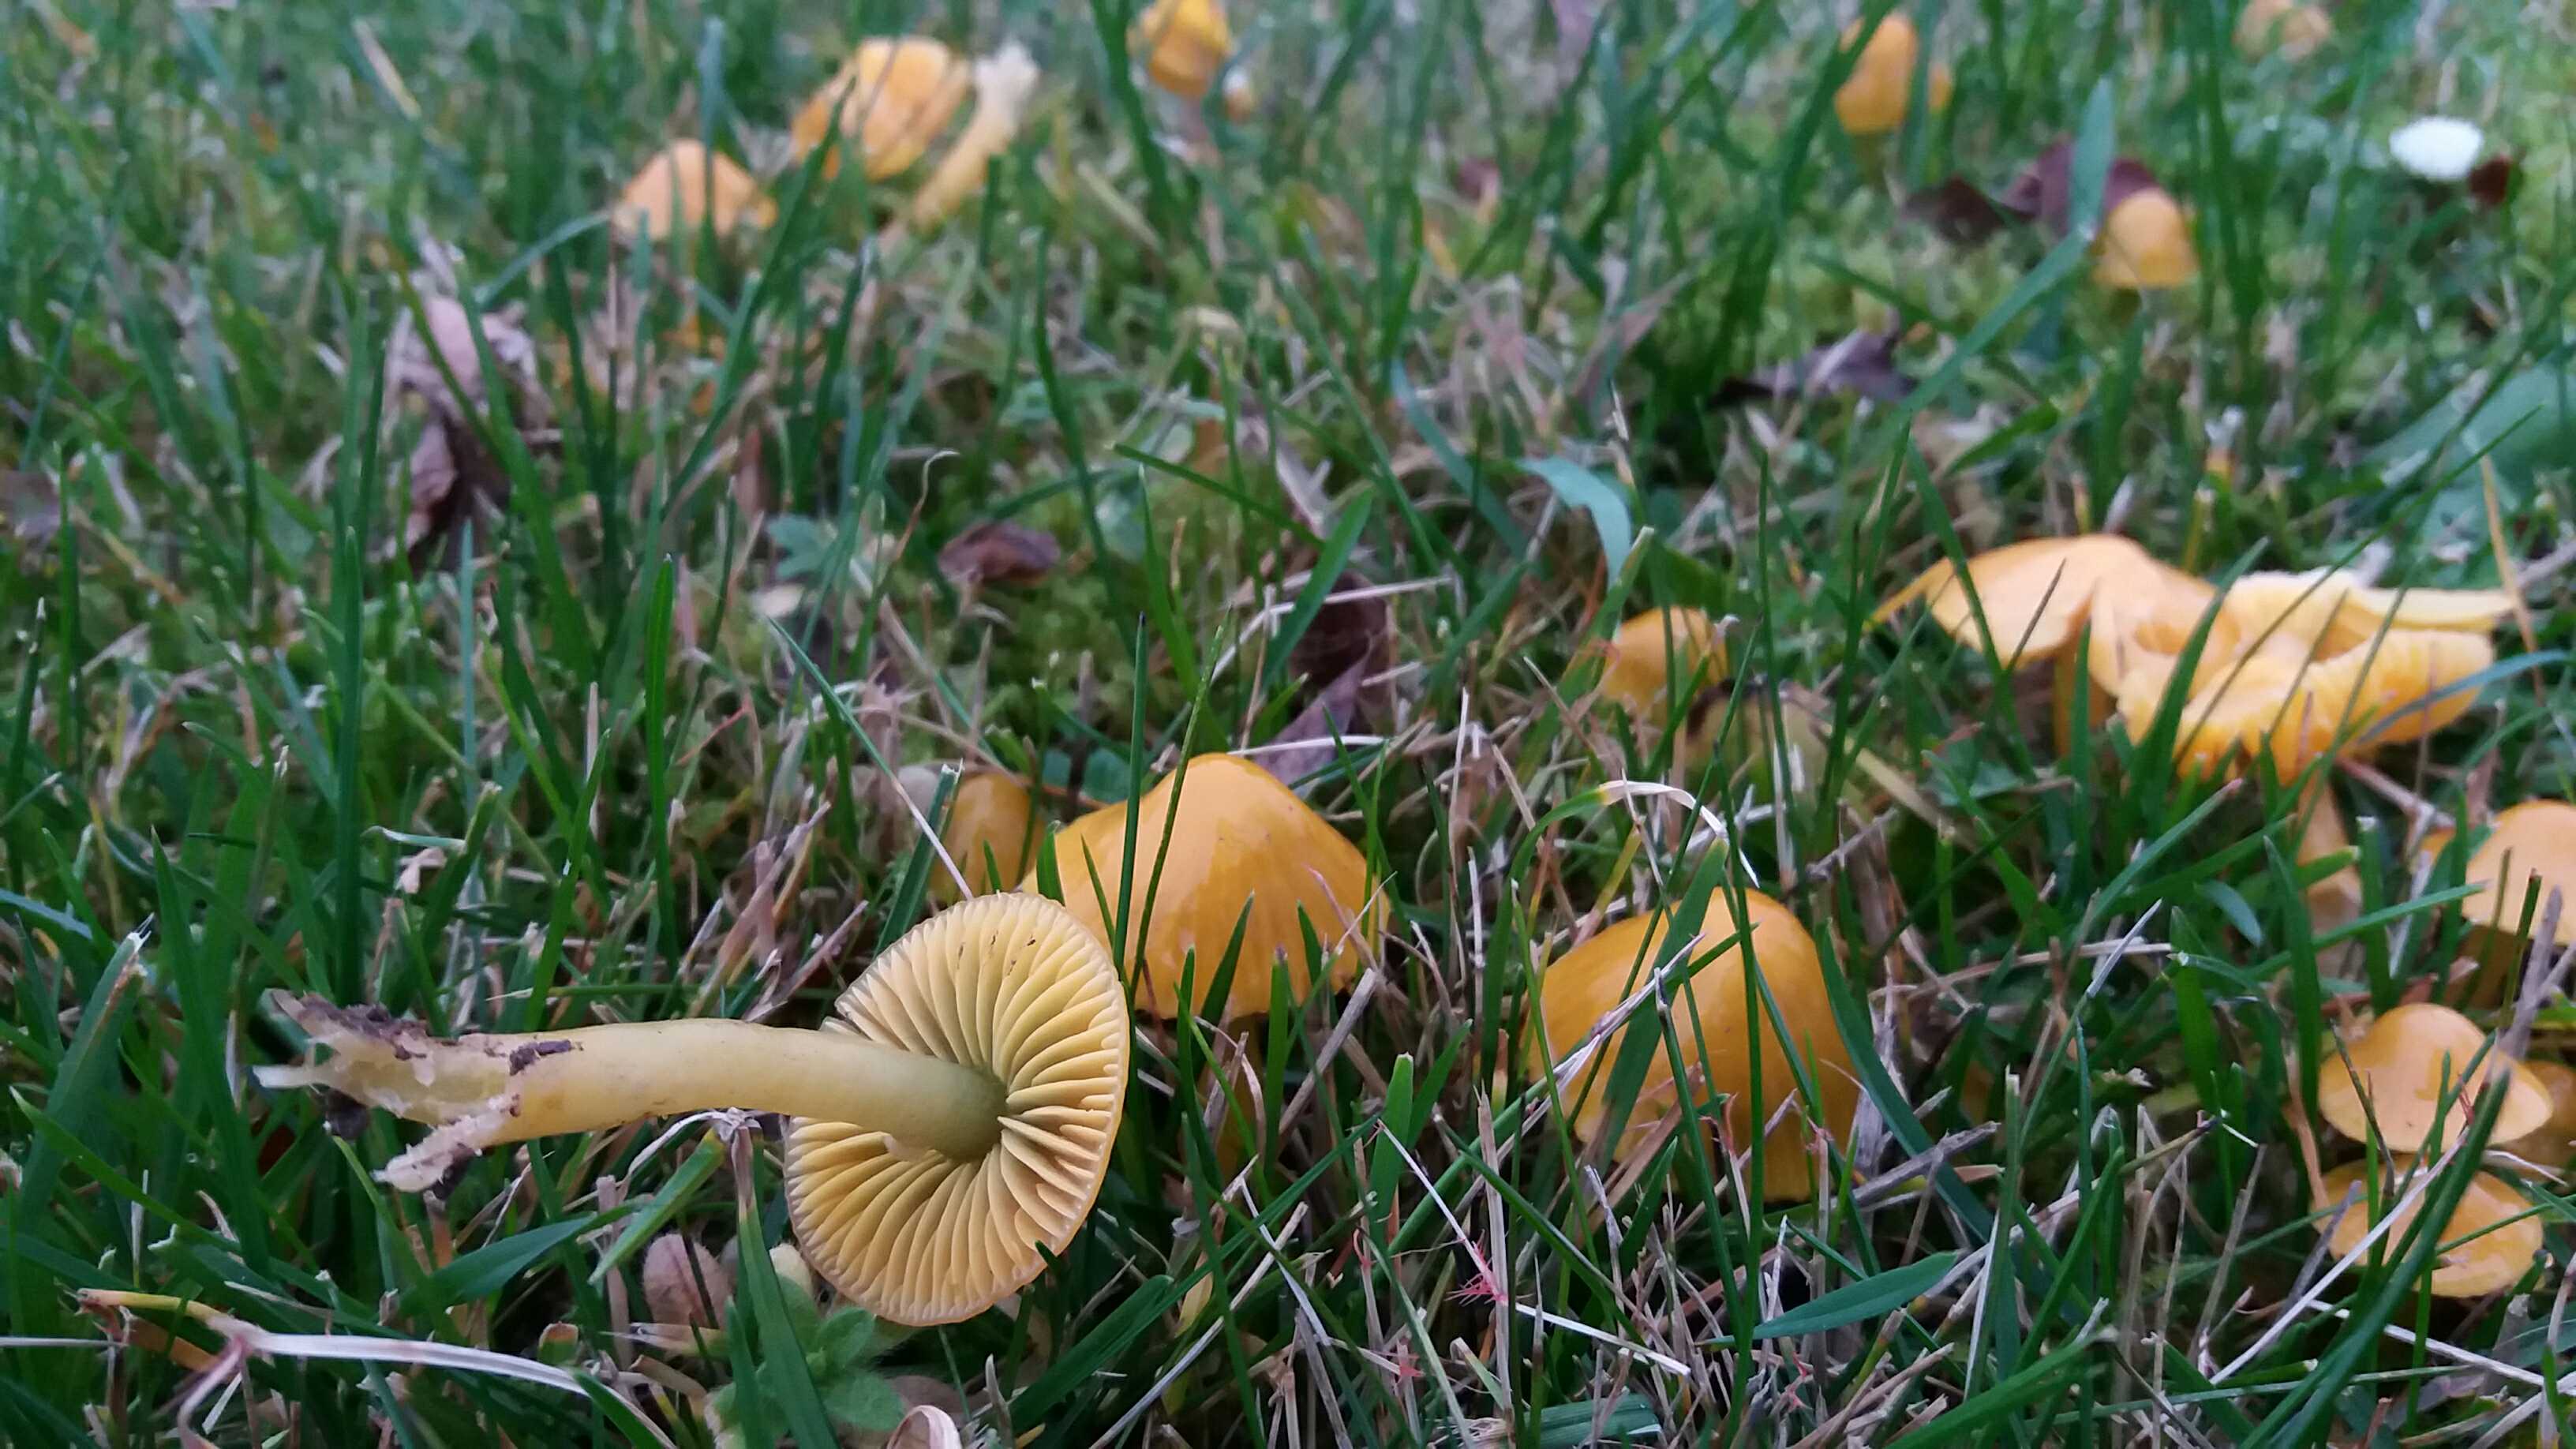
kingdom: Fungi
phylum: Basidiomycota
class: Agaricomycetes
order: Agaricales
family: Hygrophoraceae
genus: Gliophorus
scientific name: Gliophorus psittacinus
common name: papegøje-vokshat
